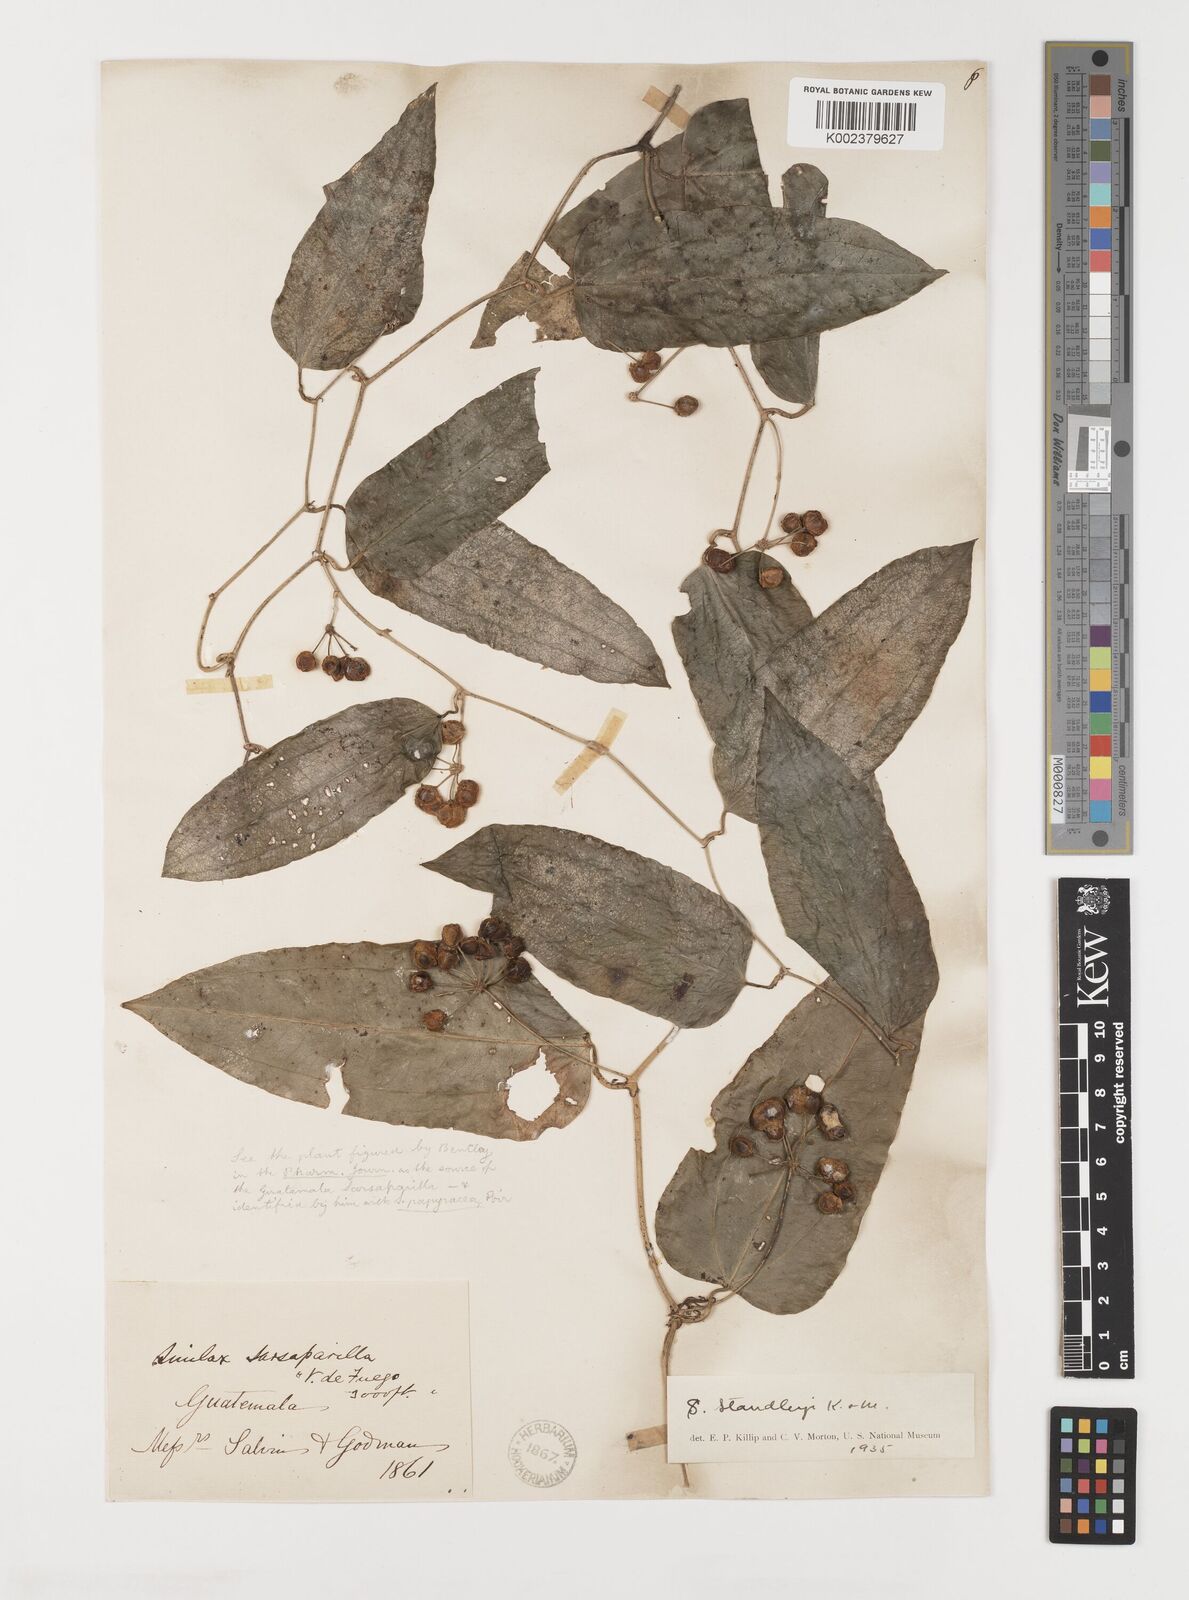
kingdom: Plantae
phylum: Tracheophyta
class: Liliopsida
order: Liliales
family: Smilacaceae
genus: Smilax
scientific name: Smilax officinalis
